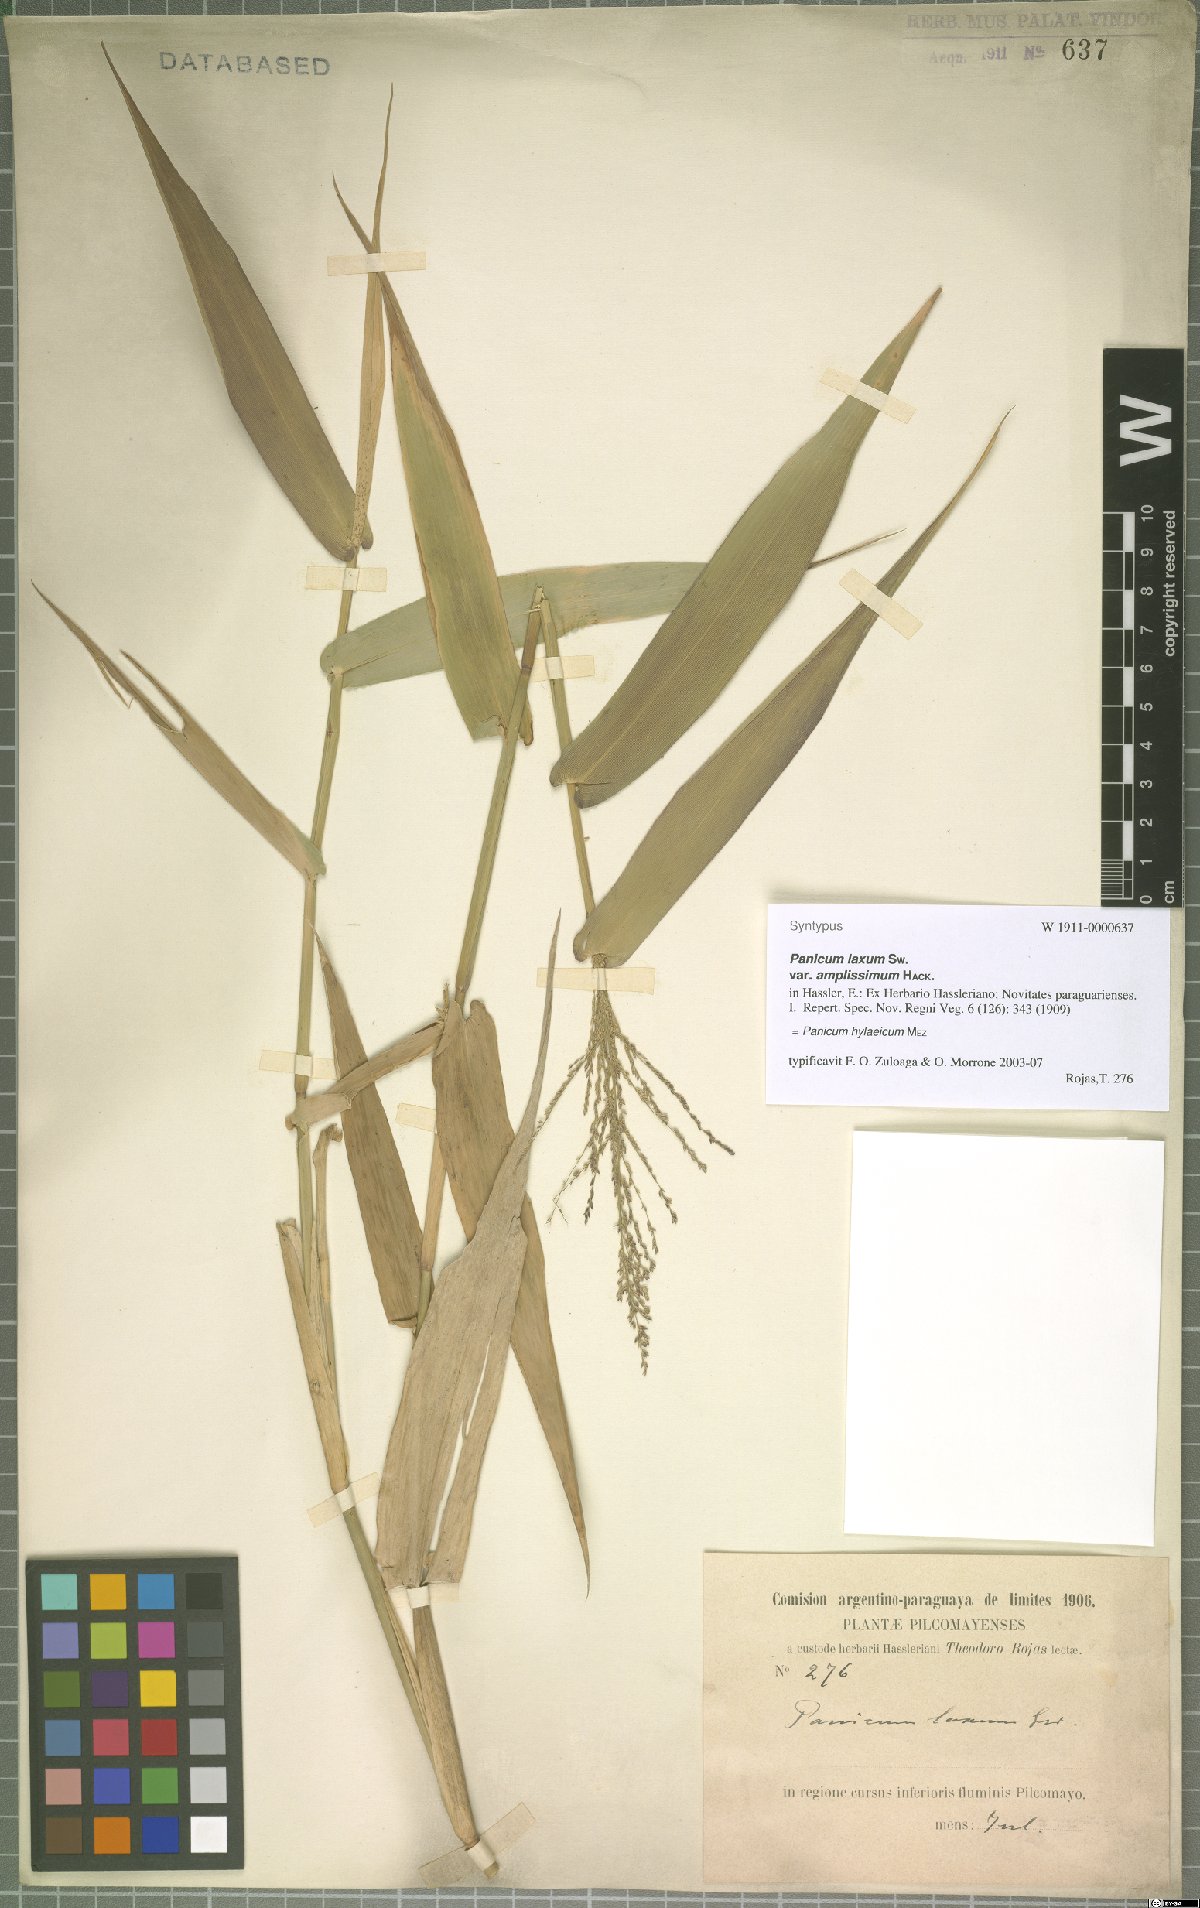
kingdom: Plantae
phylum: Tracheophyta
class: Liliopsida
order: Poales
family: Poaceae
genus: Rugoloa
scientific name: Rugoloa hylaeica
